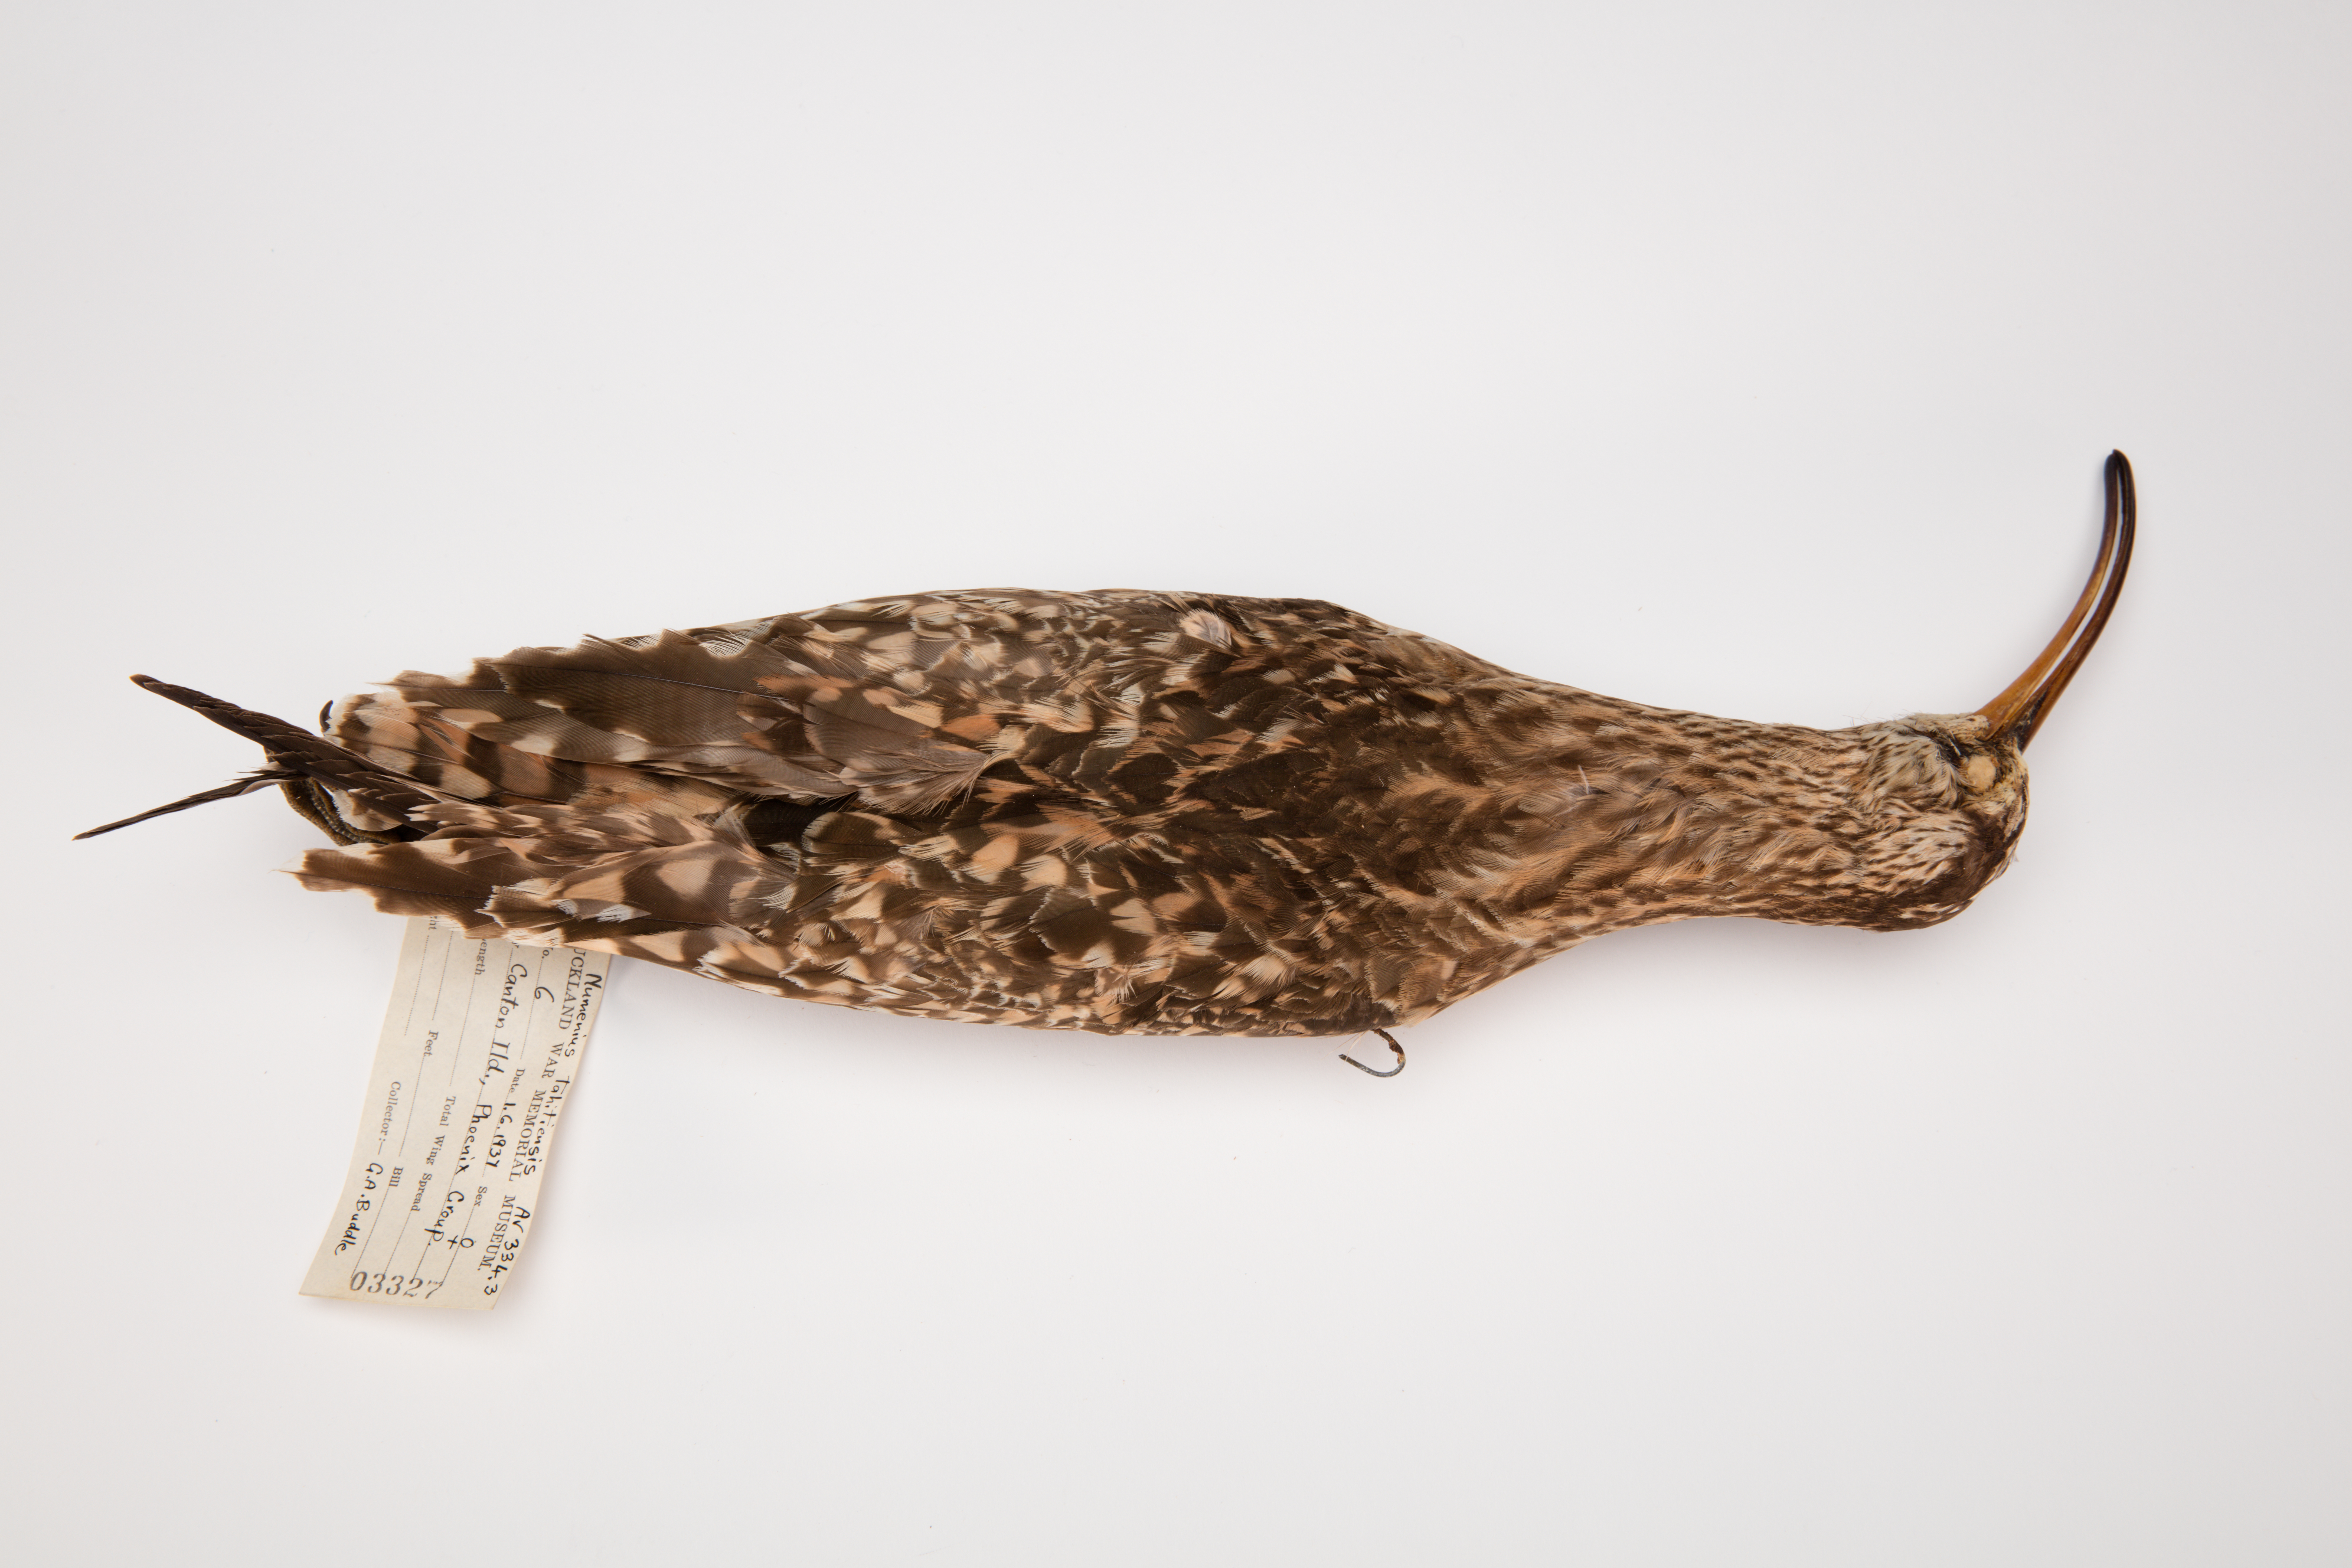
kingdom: Animalia
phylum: Chordata
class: Aves
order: Charadriiformes
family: Scolopacidae
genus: Numenius
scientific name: Numenius tahitiensis
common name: Bristle-thighed curlew
